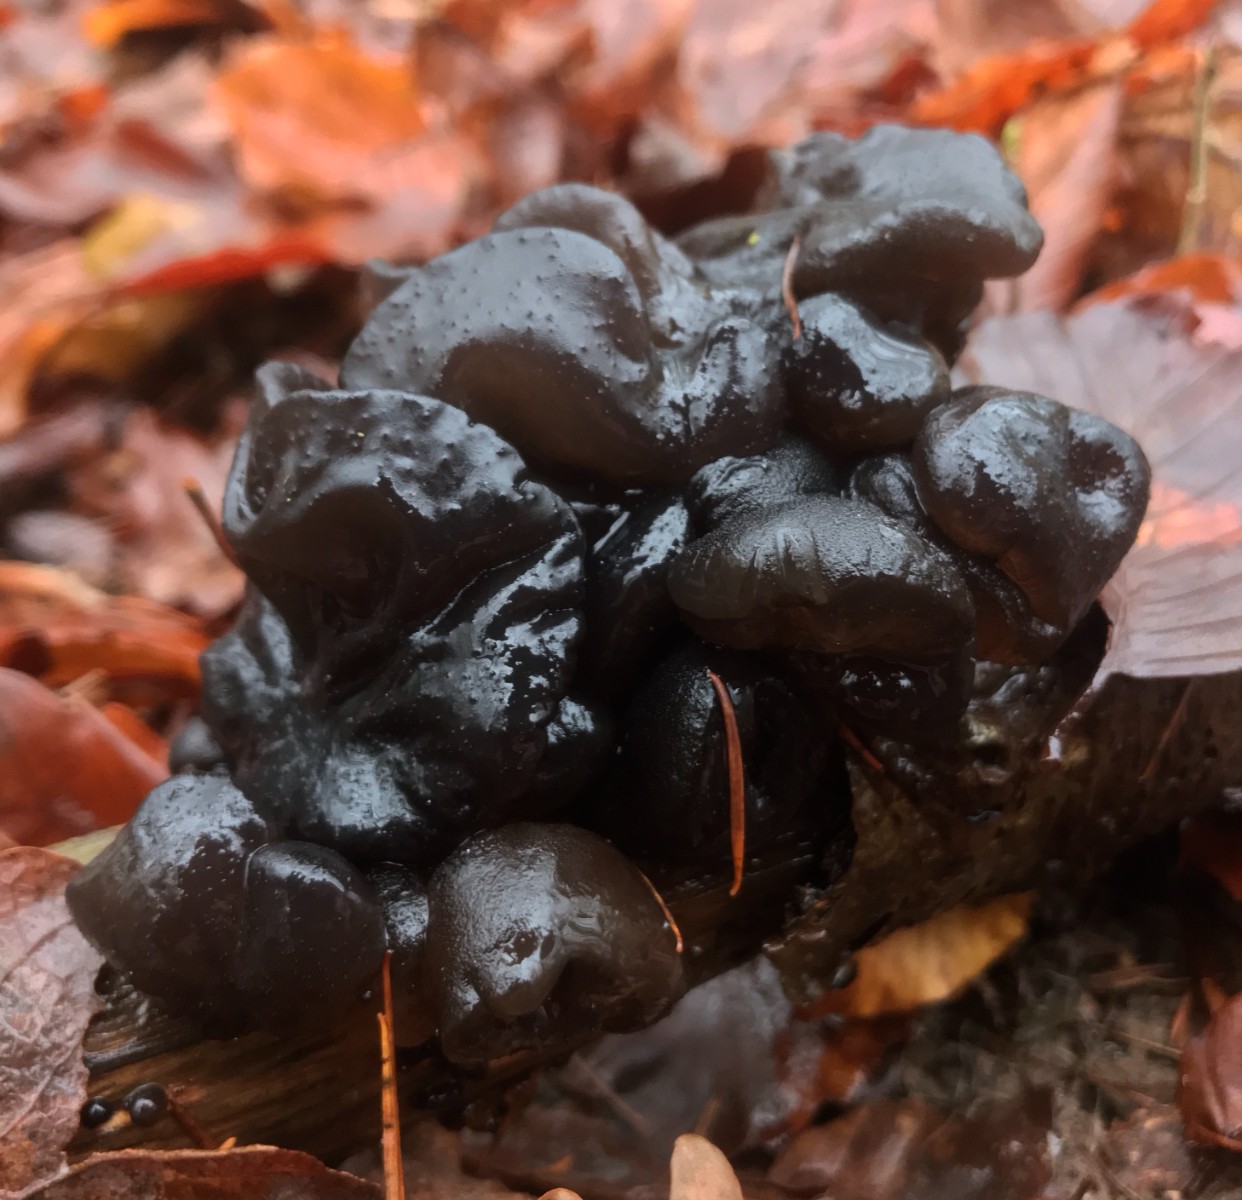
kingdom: Fungi
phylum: Basidiomycota
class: Agaricomycetes
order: Auriculariales
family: Auriculariaceae
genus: Exidia
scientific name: Exidia nigricans
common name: almindelig bævretop
